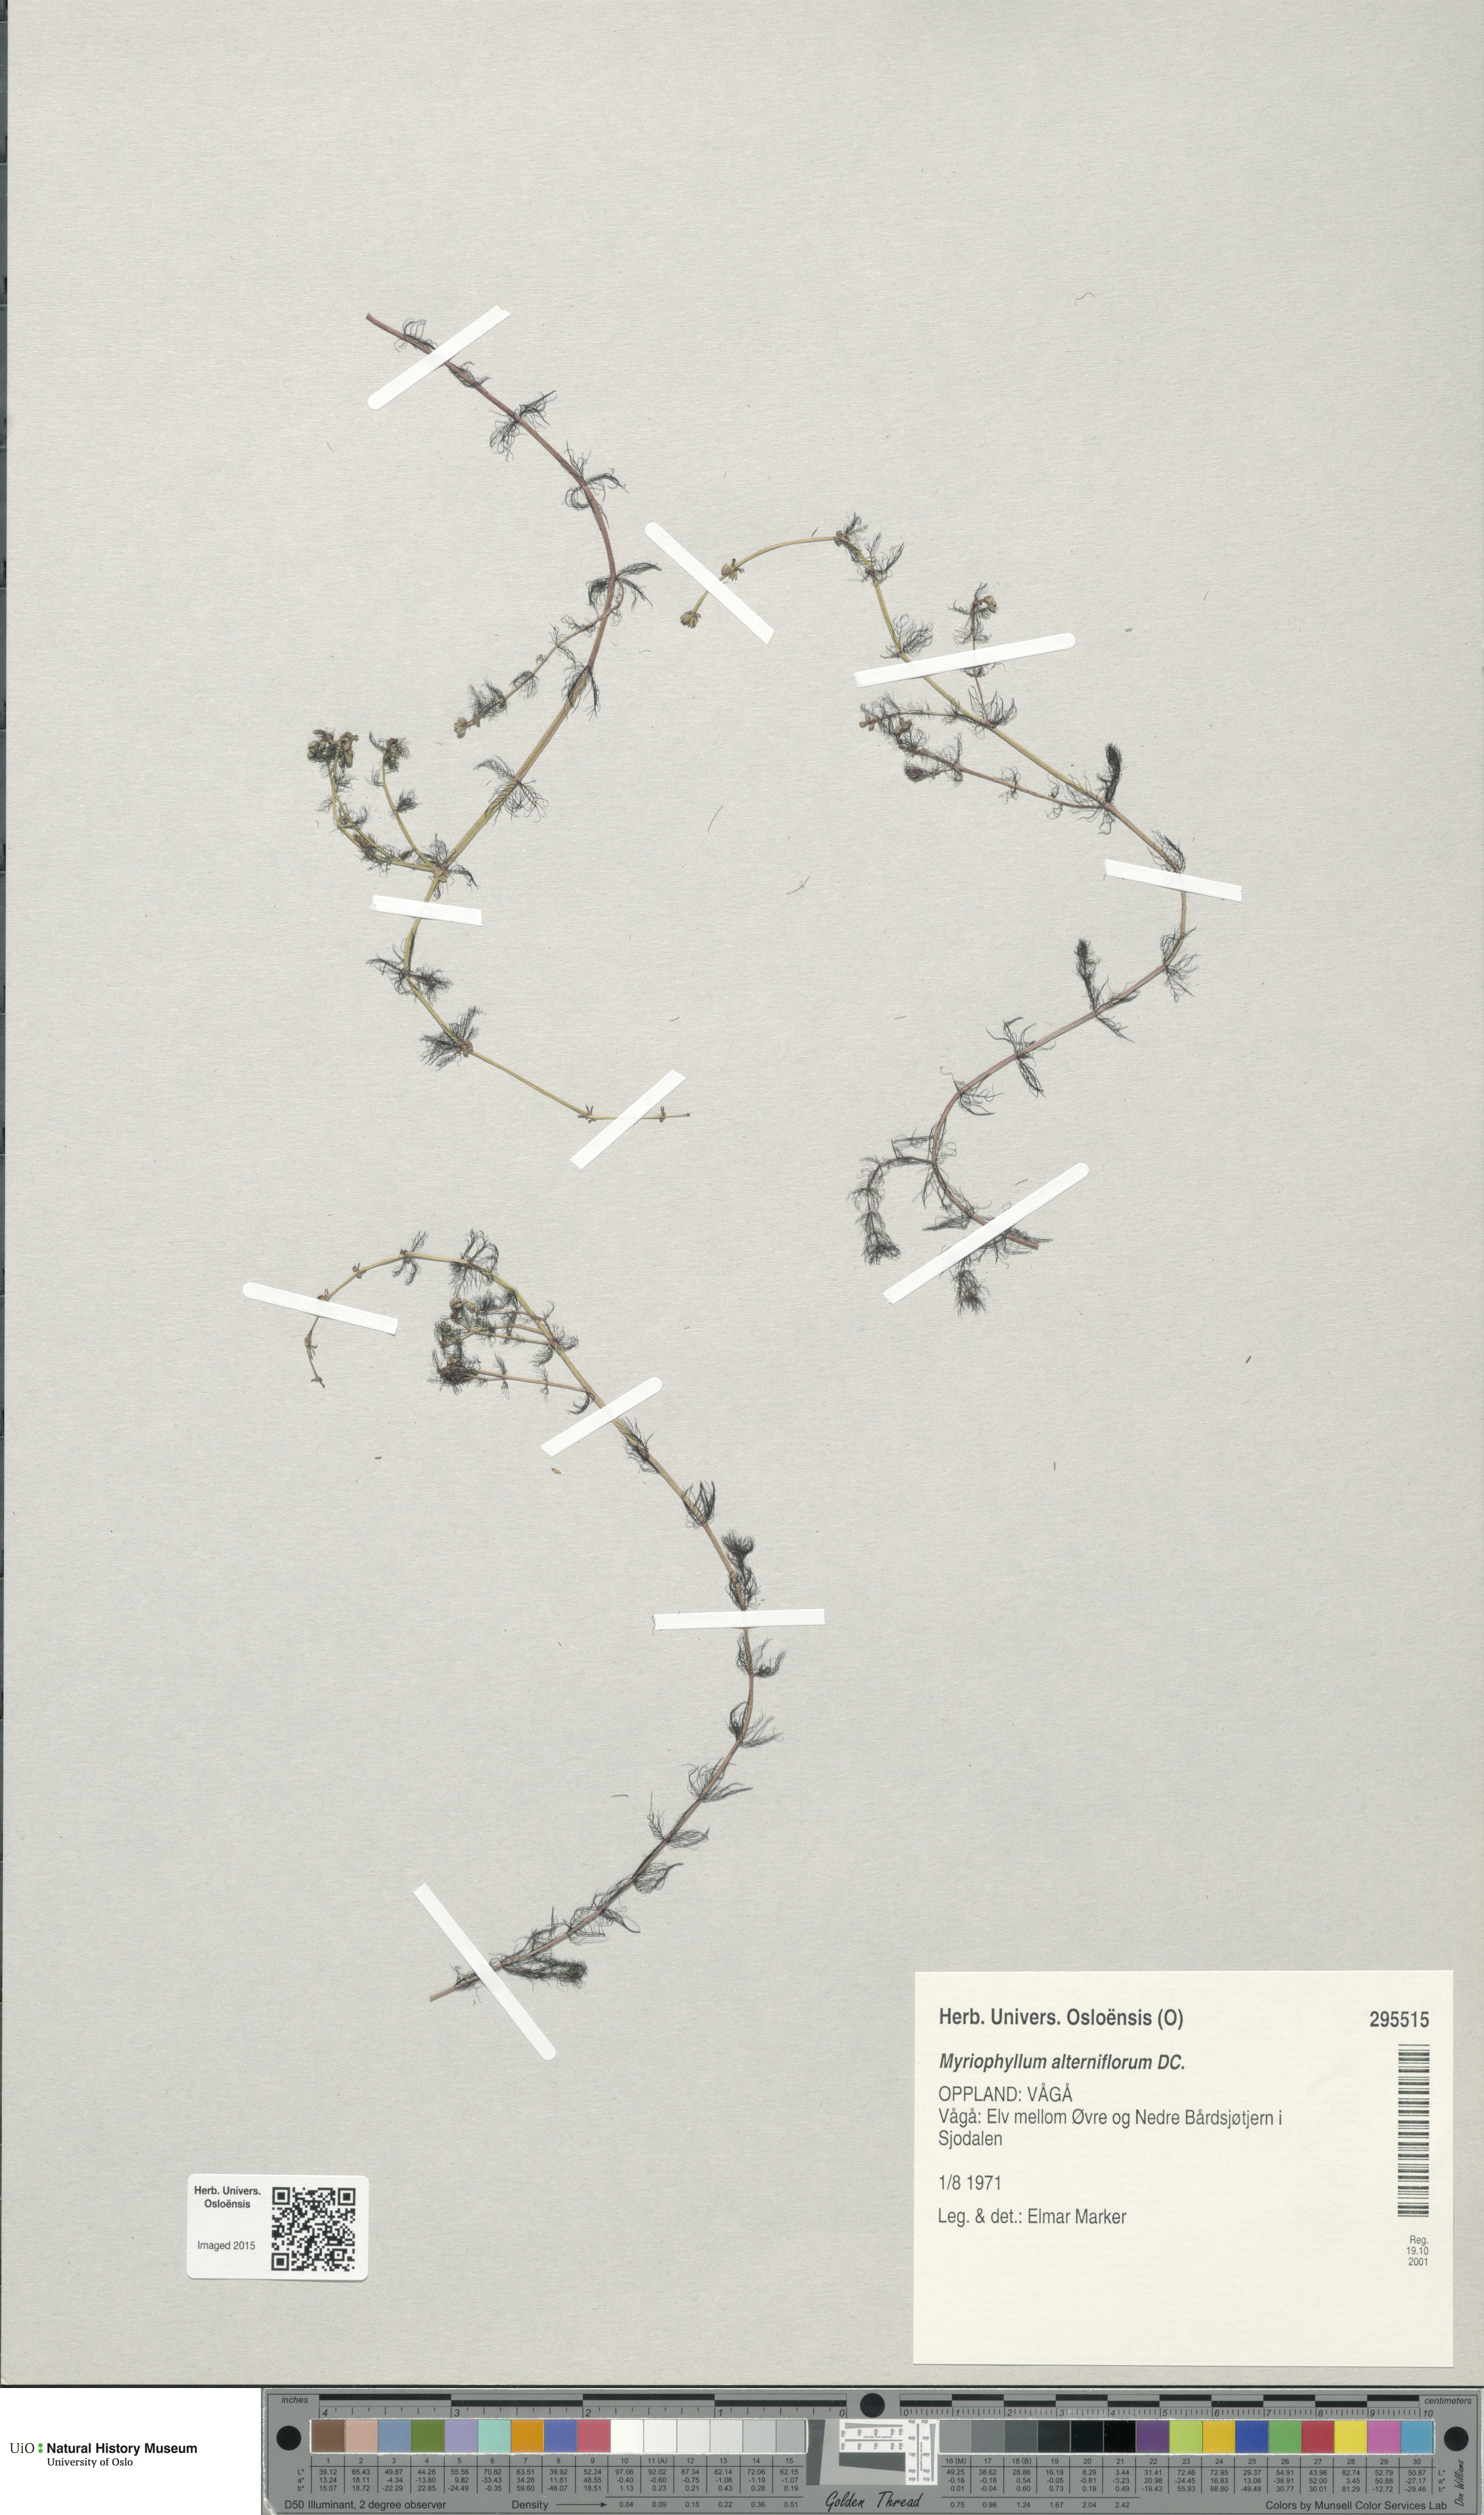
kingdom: Plantae
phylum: Tracheophyta
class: Magnoliopsida
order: Saxifragales
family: Haloragaceae
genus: Myriophyllum
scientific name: Myriophyllum alterniflorum
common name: Alternate water-milfoil
